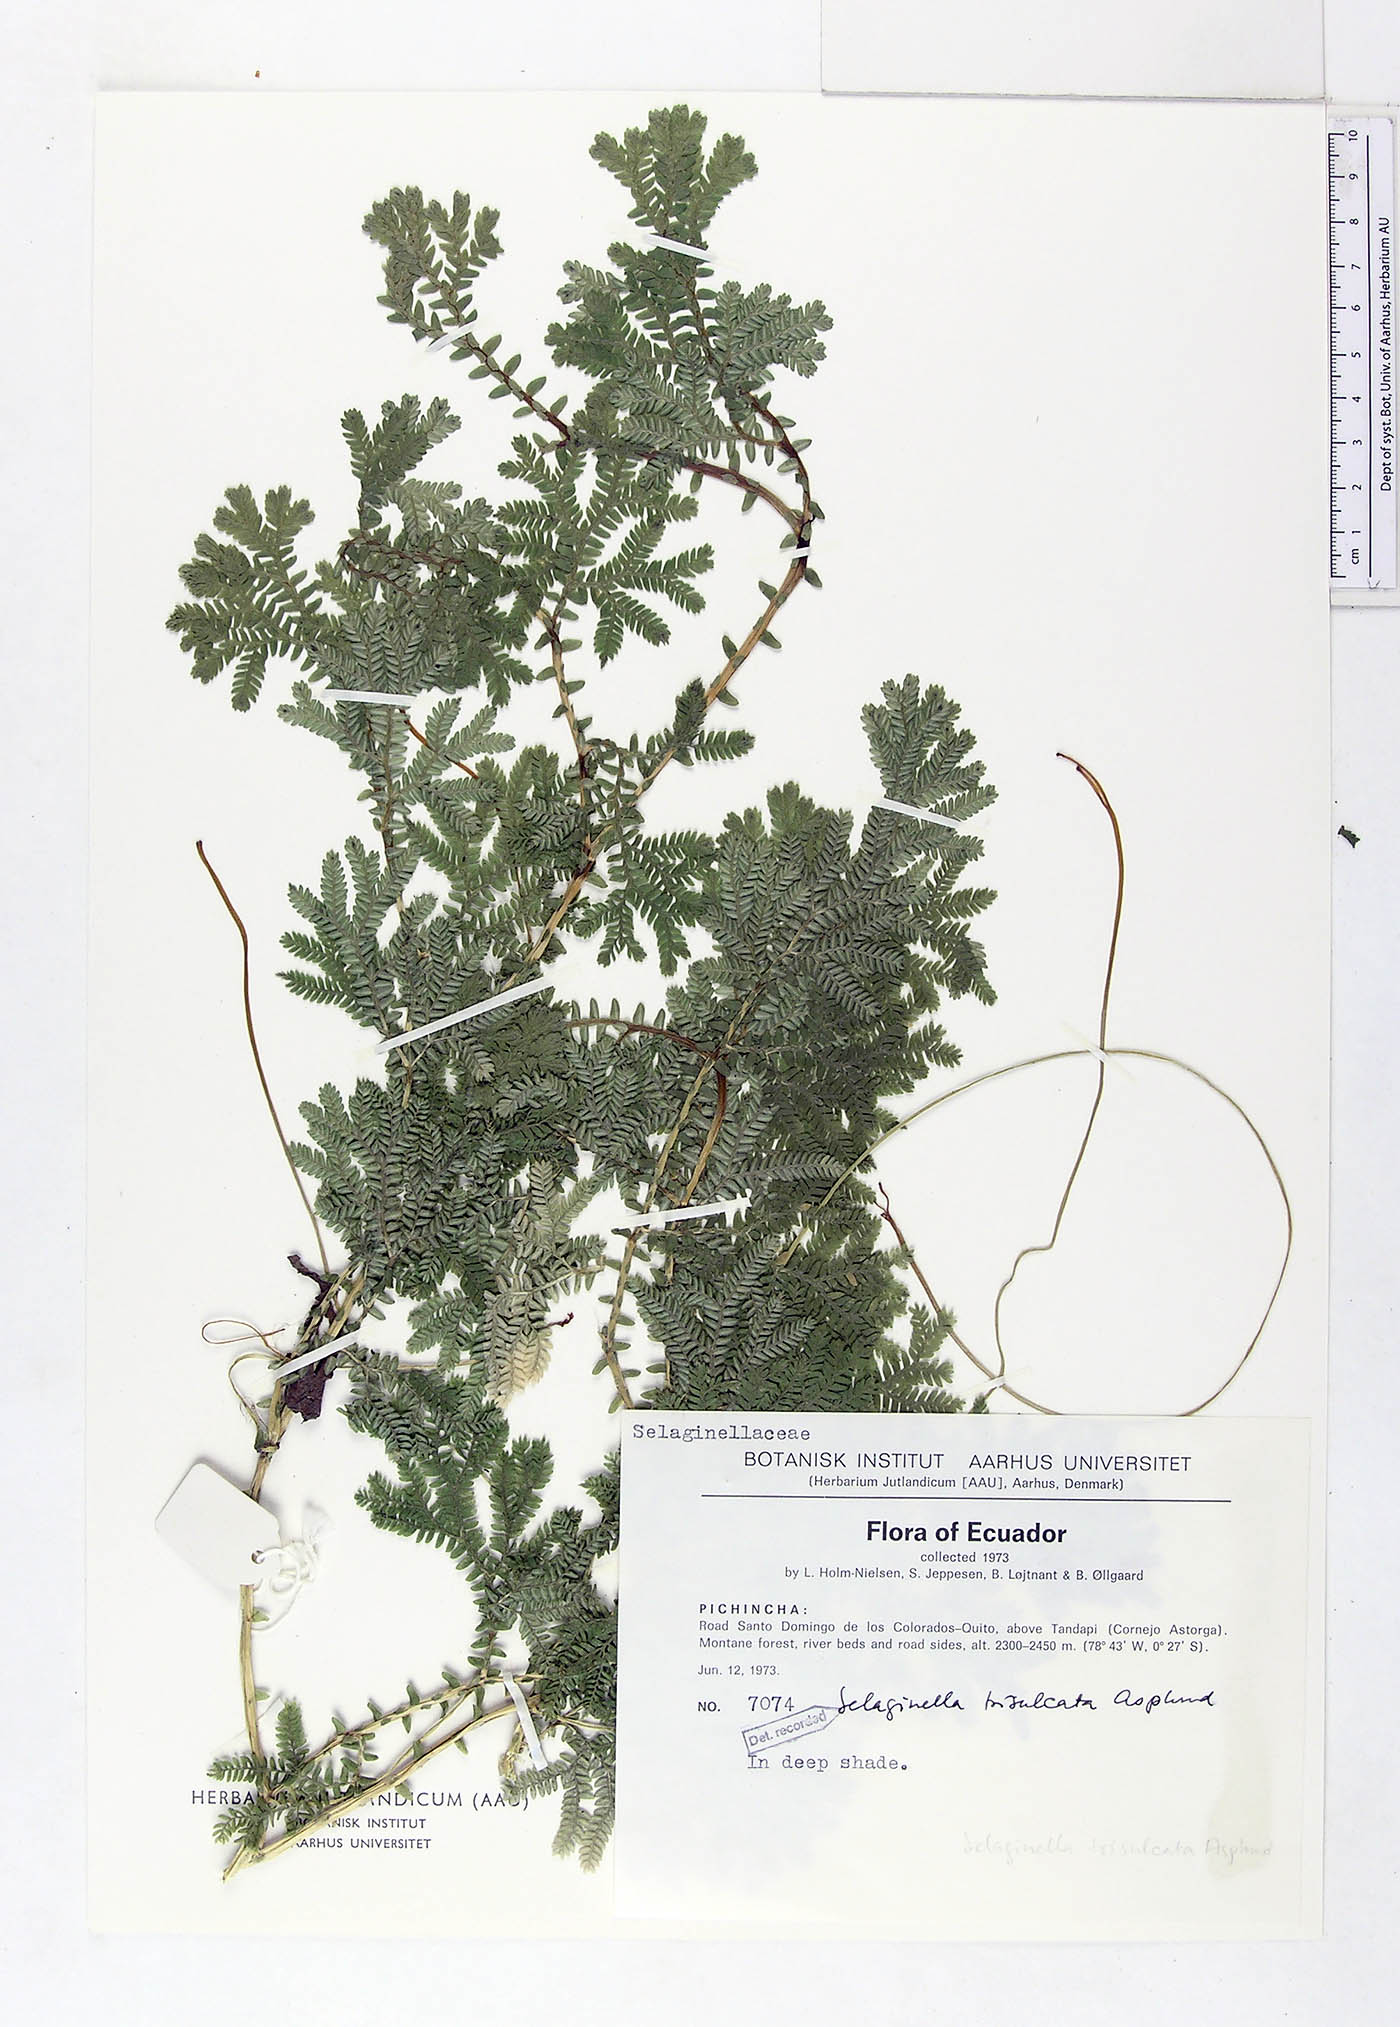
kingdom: Plantae
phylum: Tracheophyta
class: Lycopodiopsida
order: Selaginellales
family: Selaginellaceae
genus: Selaginella
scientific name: Selaginella trisulcata
